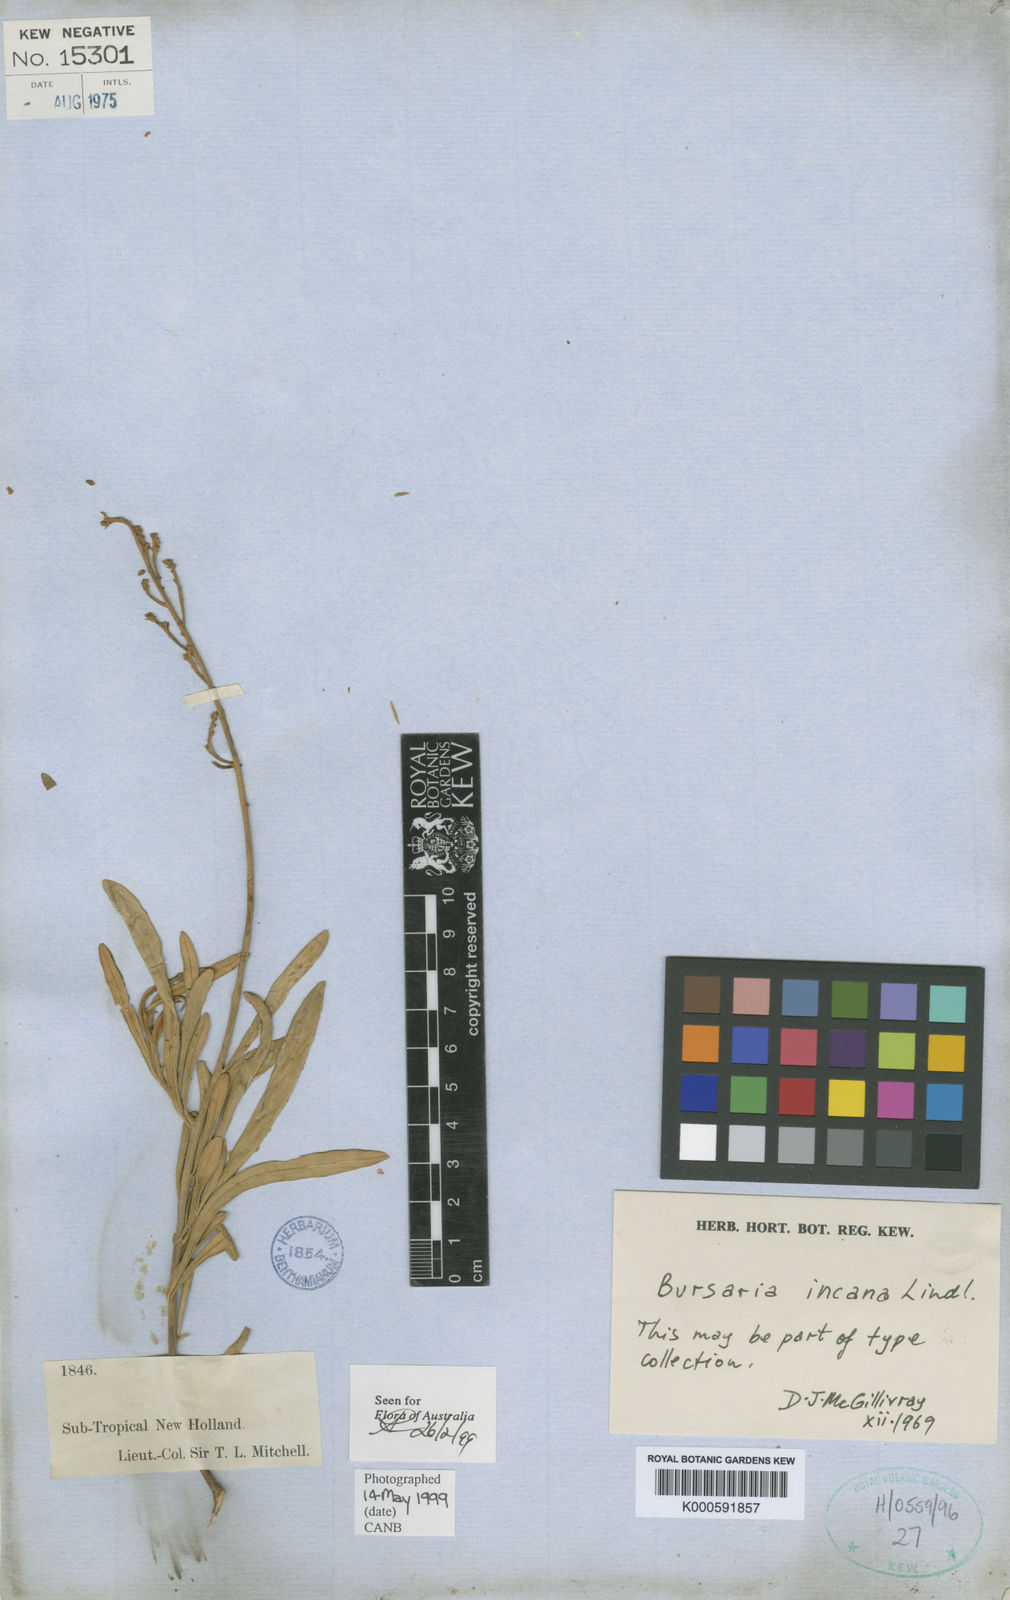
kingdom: Plantae
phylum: Tracheophyta
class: Magnoliopsida
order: Apiales
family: Pittosporaceae
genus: Bursaria
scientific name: Bursaria incana
